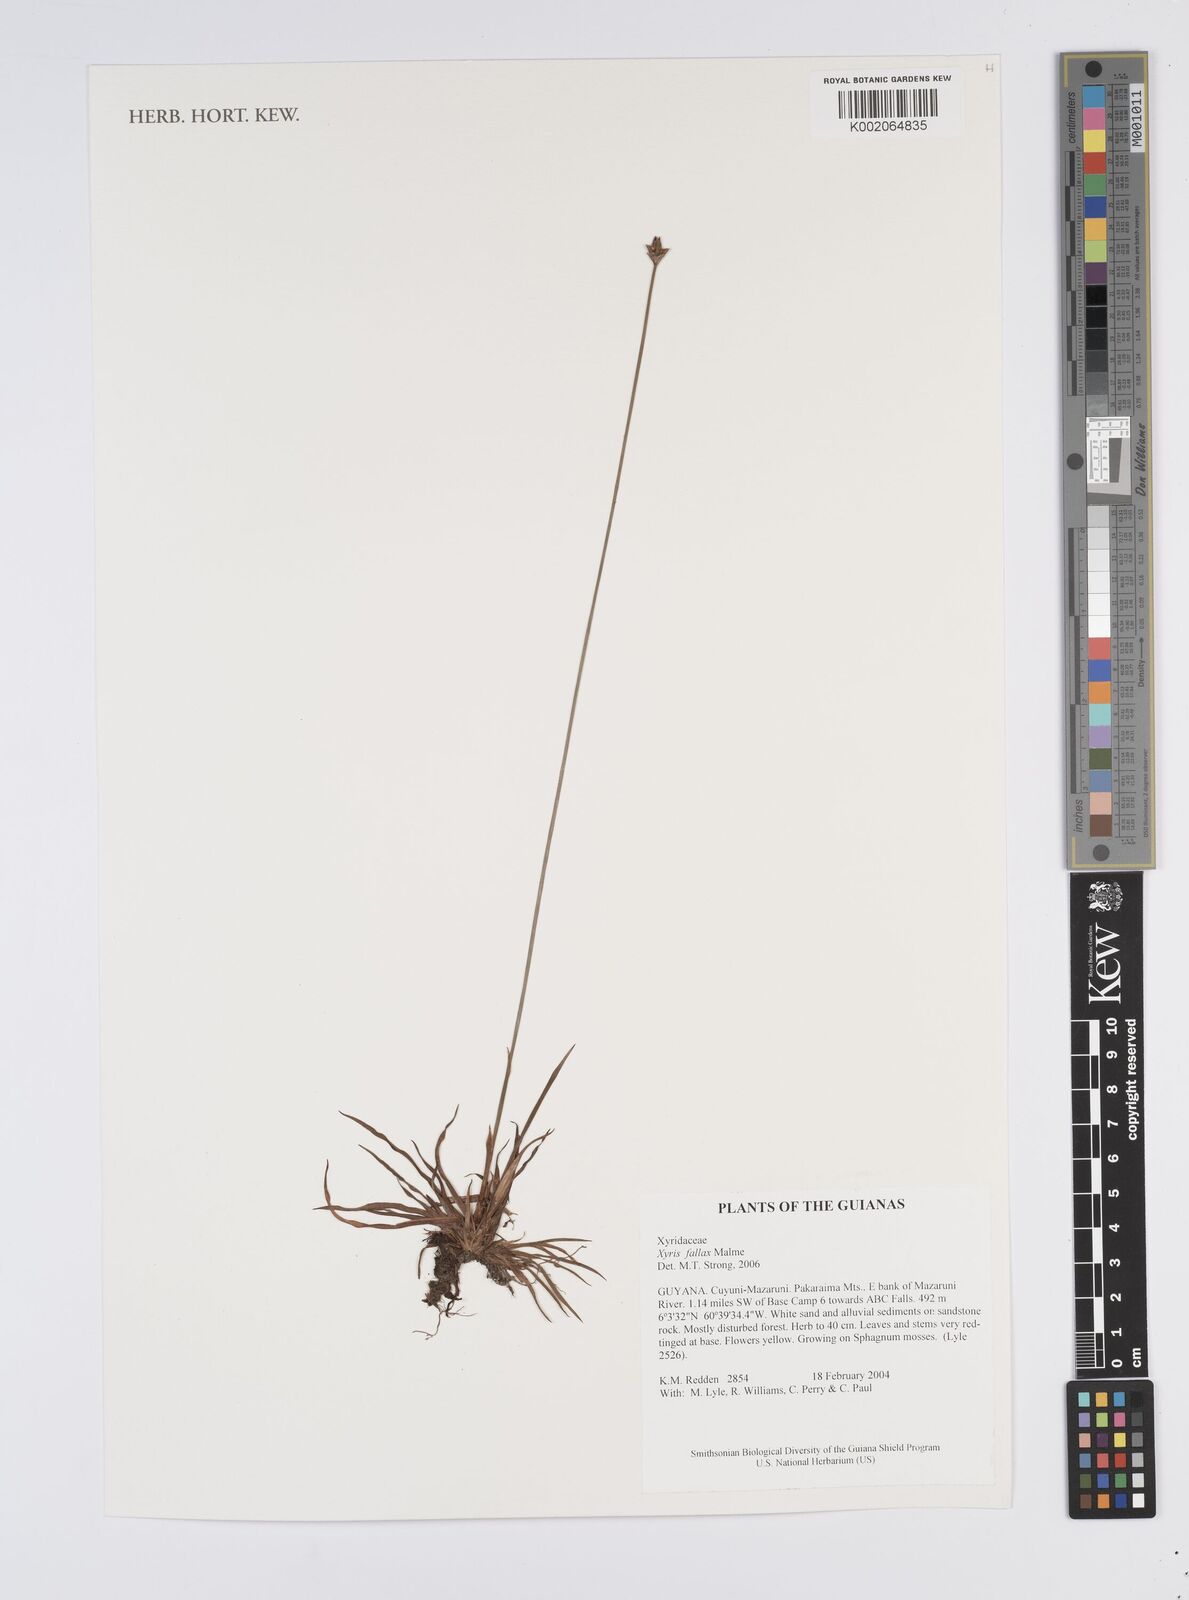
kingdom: Plantae
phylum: Tracheophyta
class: Liliopsida
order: Poales
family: Xyridaceae
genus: Xyris
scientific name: Xyris fallax
